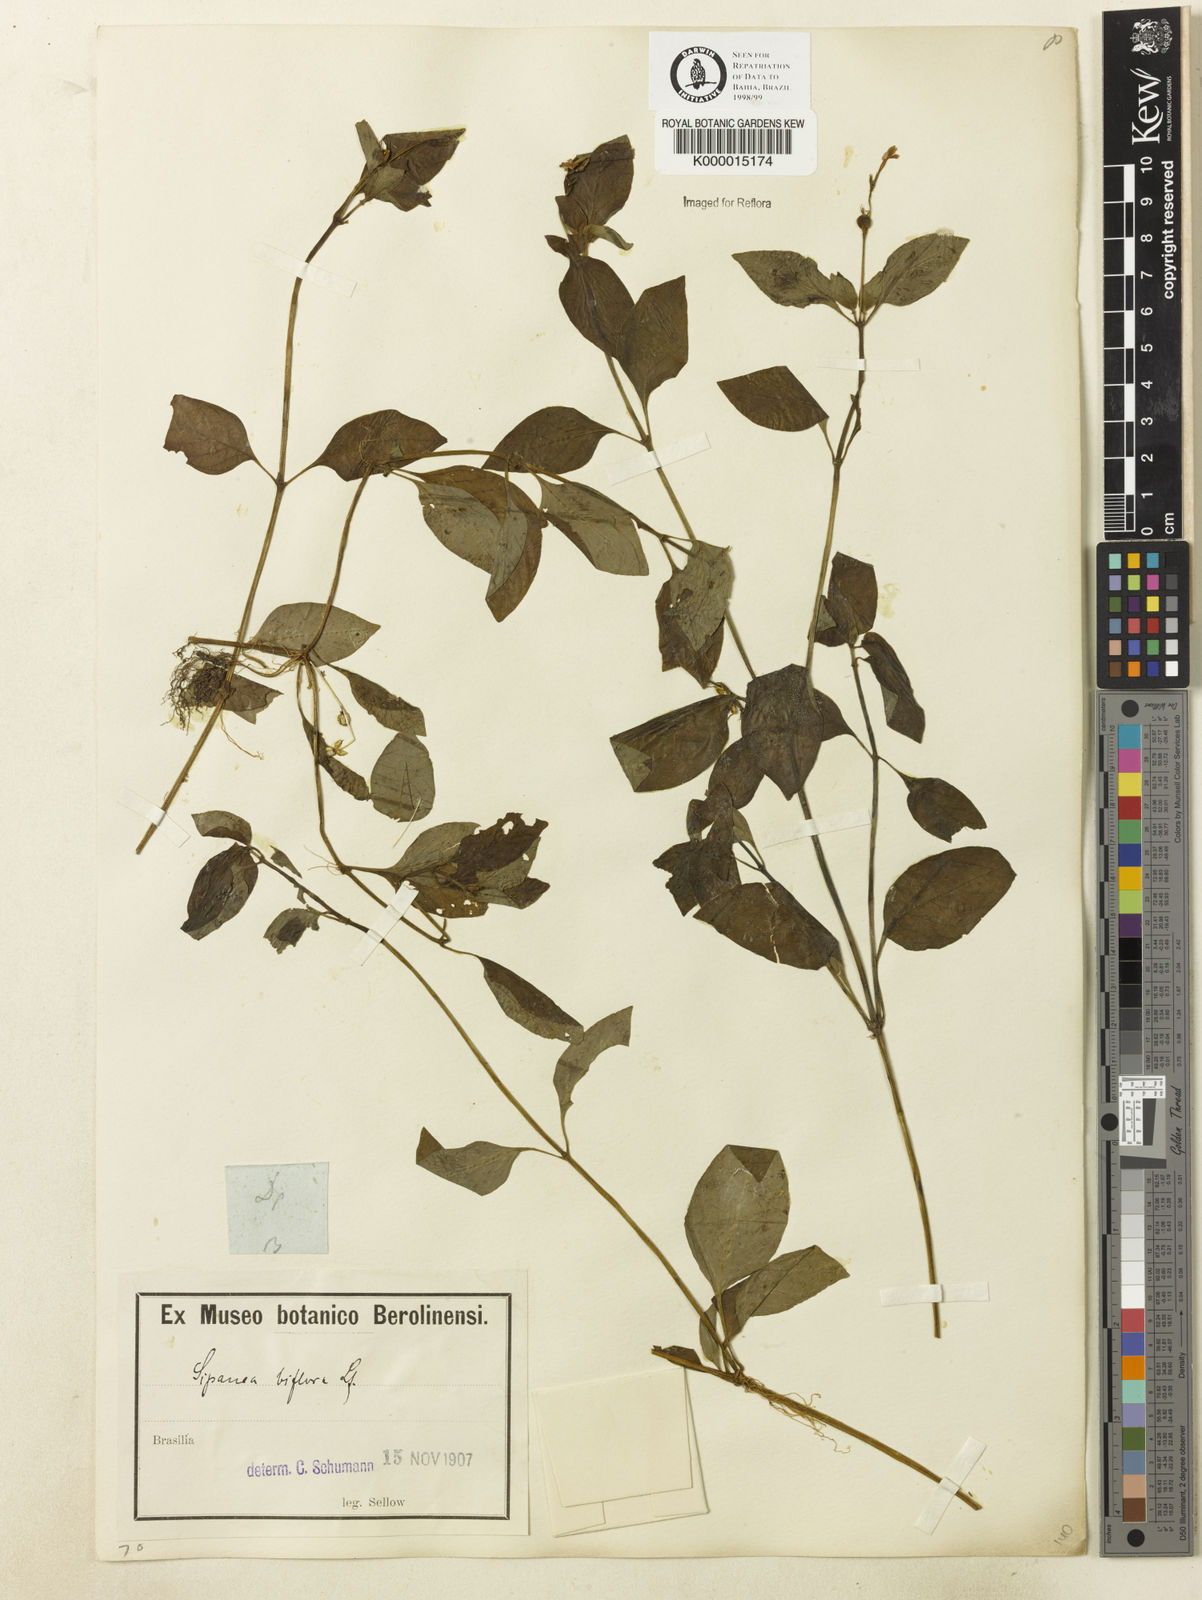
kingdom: Plantae
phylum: Tracheophyta
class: Magnoliopsida
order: Gentianales
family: Rubiaceae
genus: Sipanea
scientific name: Sipanea biflora
